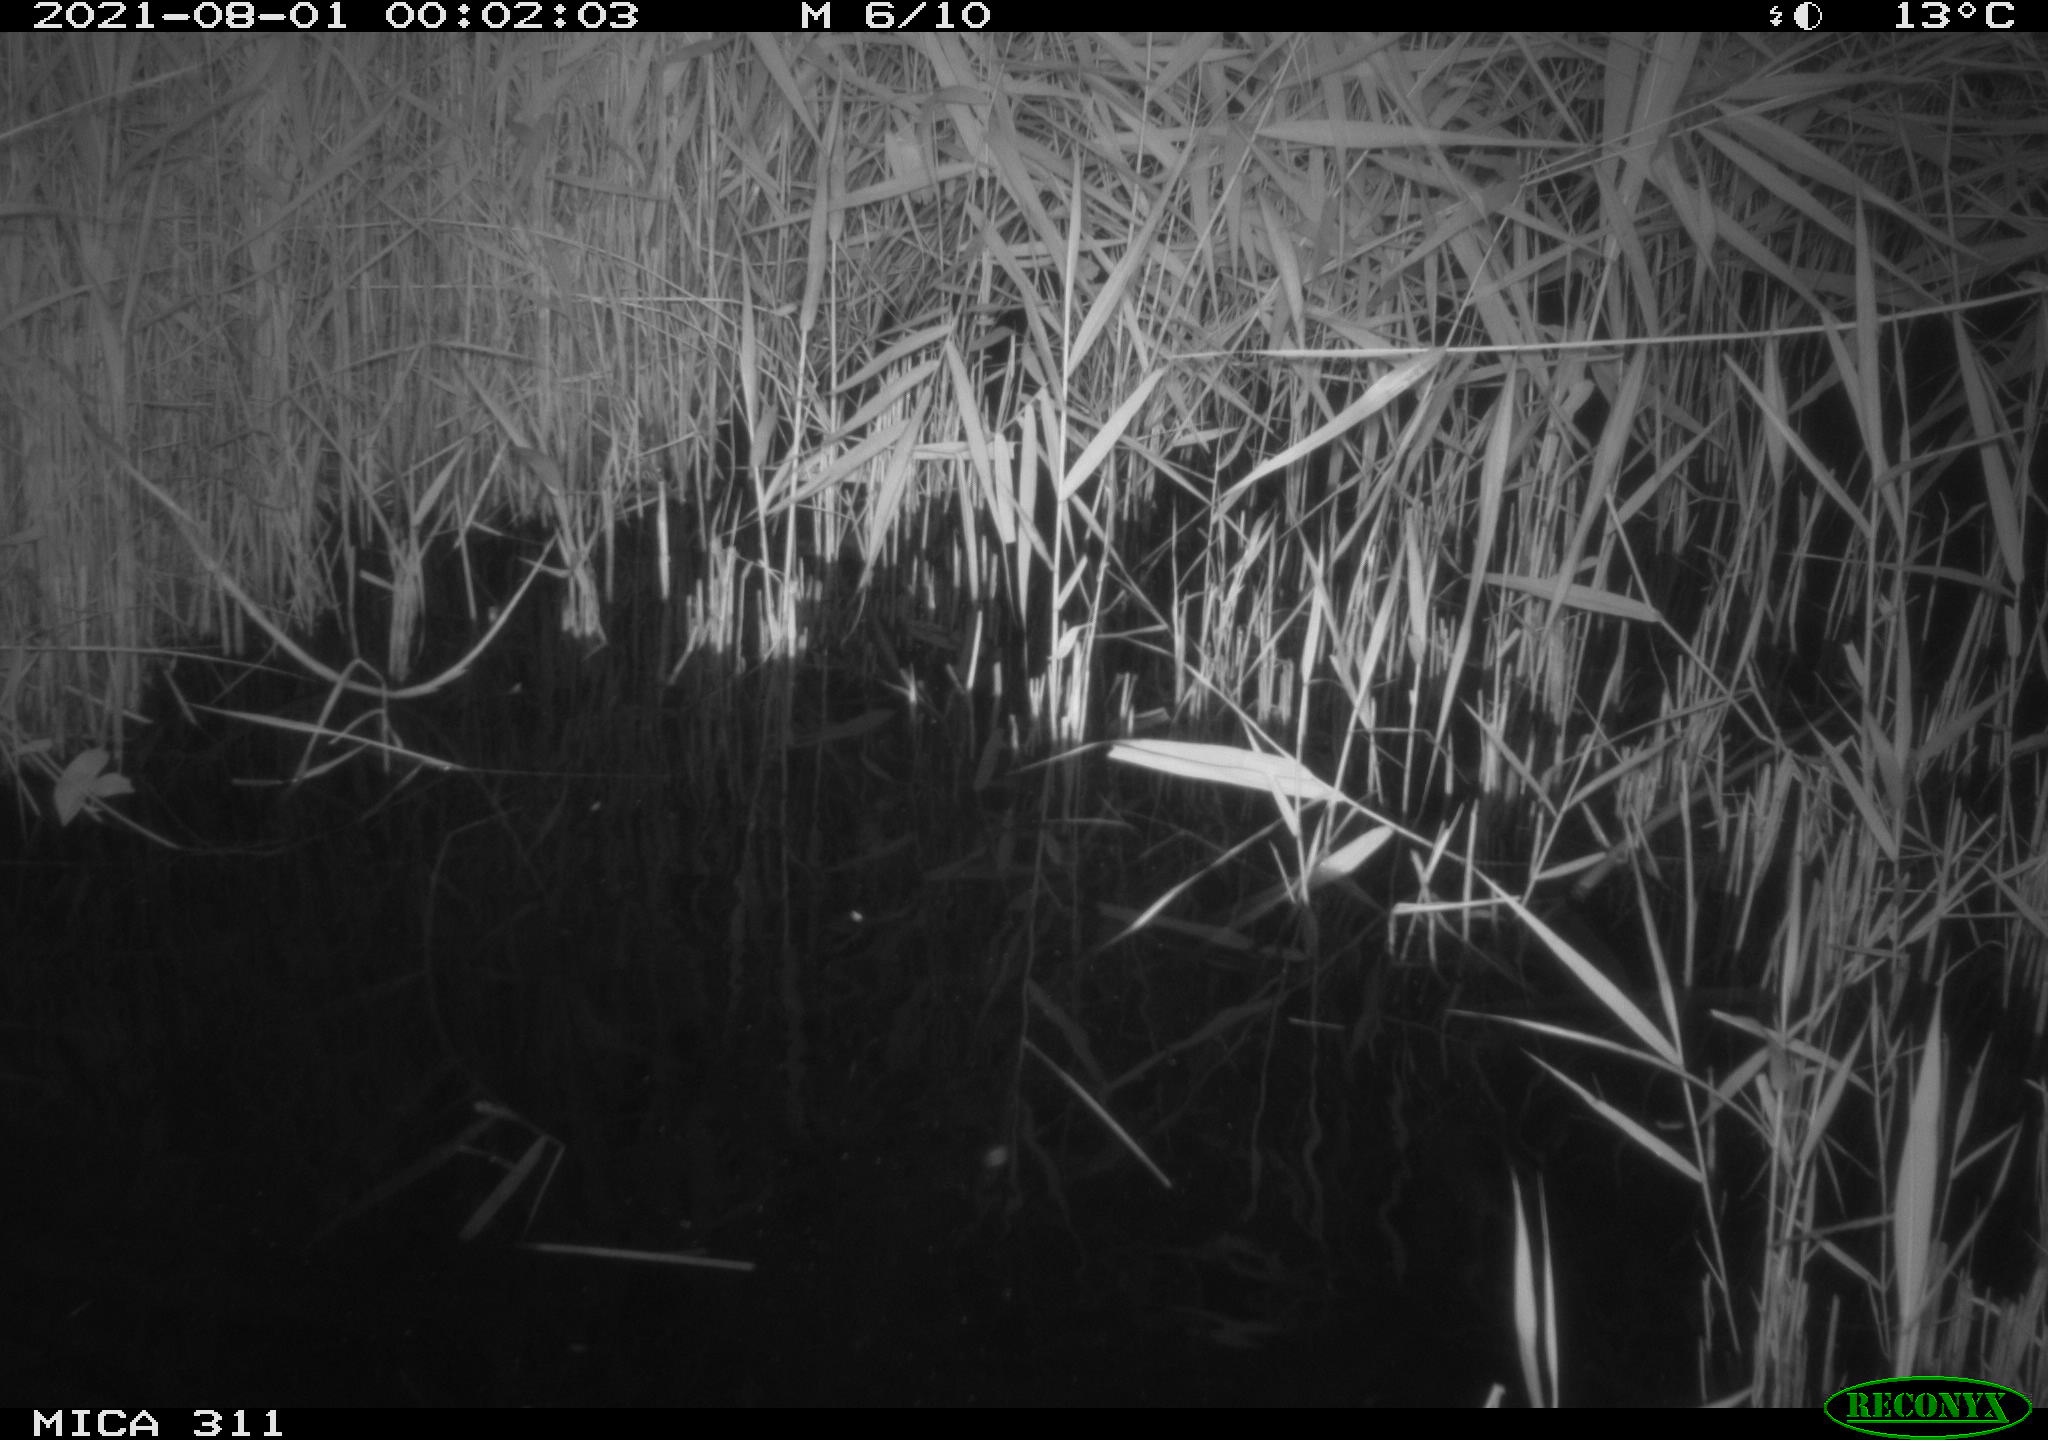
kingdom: Animalia
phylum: Chordata
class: Mammalia
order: Rodentia
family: Muridae
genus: Rattus
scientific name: Rattus norvegicus
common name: Brown rat
